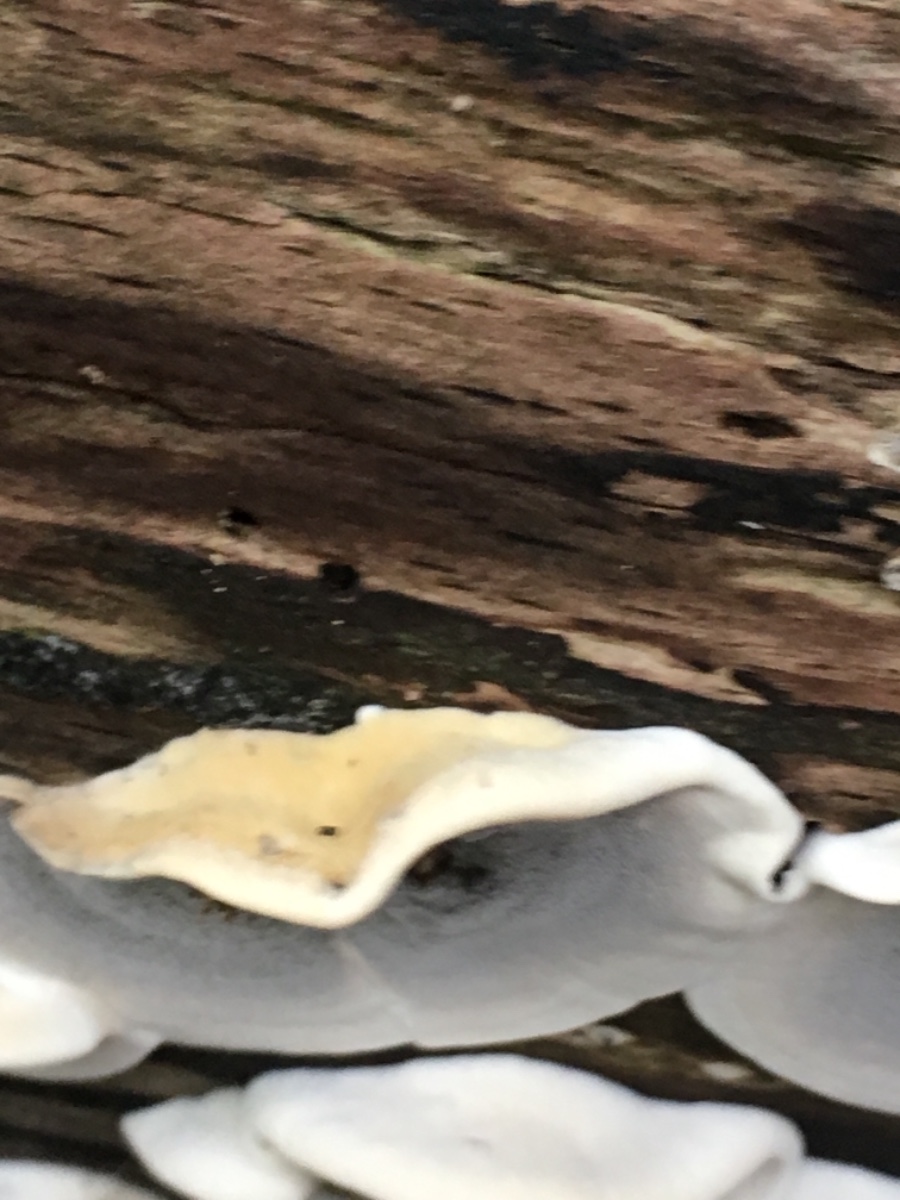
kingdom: Fungi
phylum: Basidiomycota
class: Agaricomycetes
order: Polyporales
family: Phanerochaetaceae
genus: Bjerkandera
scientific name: Bjerkandera adusta
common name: sveden sodporesvamp
